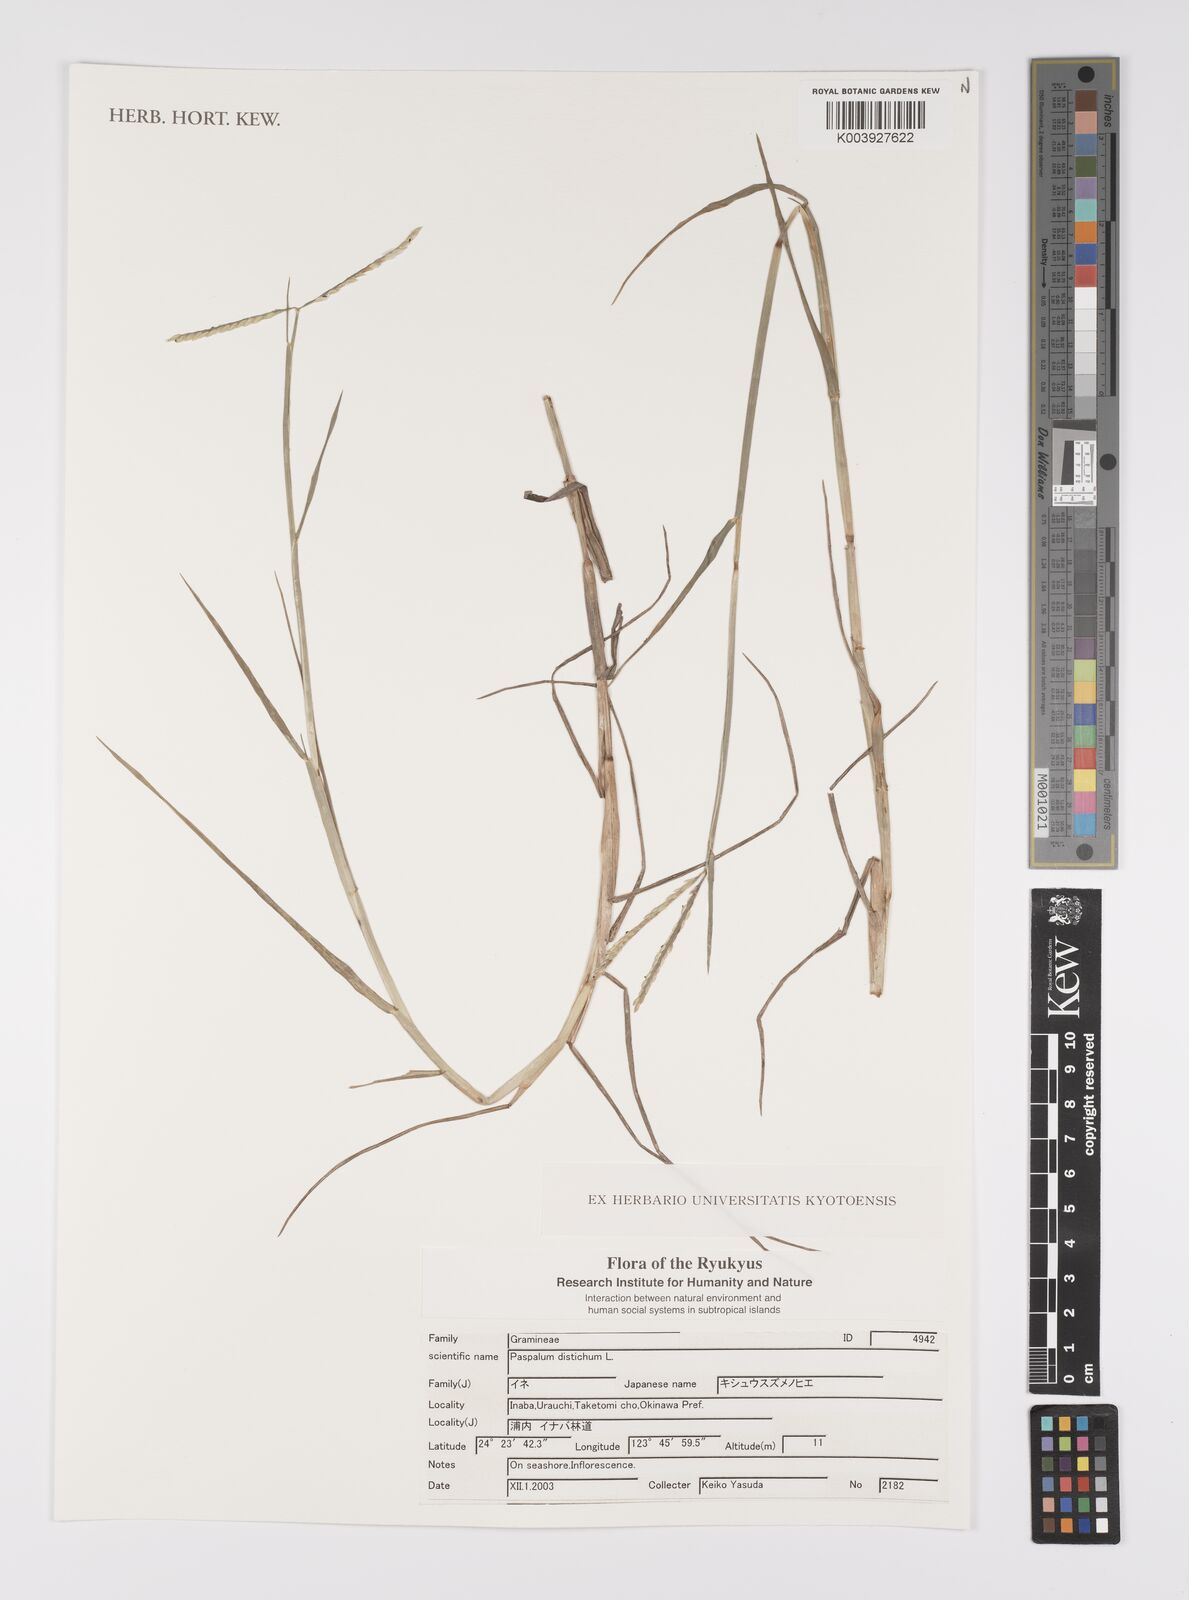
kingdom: Plantae
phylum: Tracheophyta
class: Liliopsida
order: Poales
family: Poaceae
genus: Paspalum
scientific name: Paspalum scrobiculatum
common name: Kodo millet
